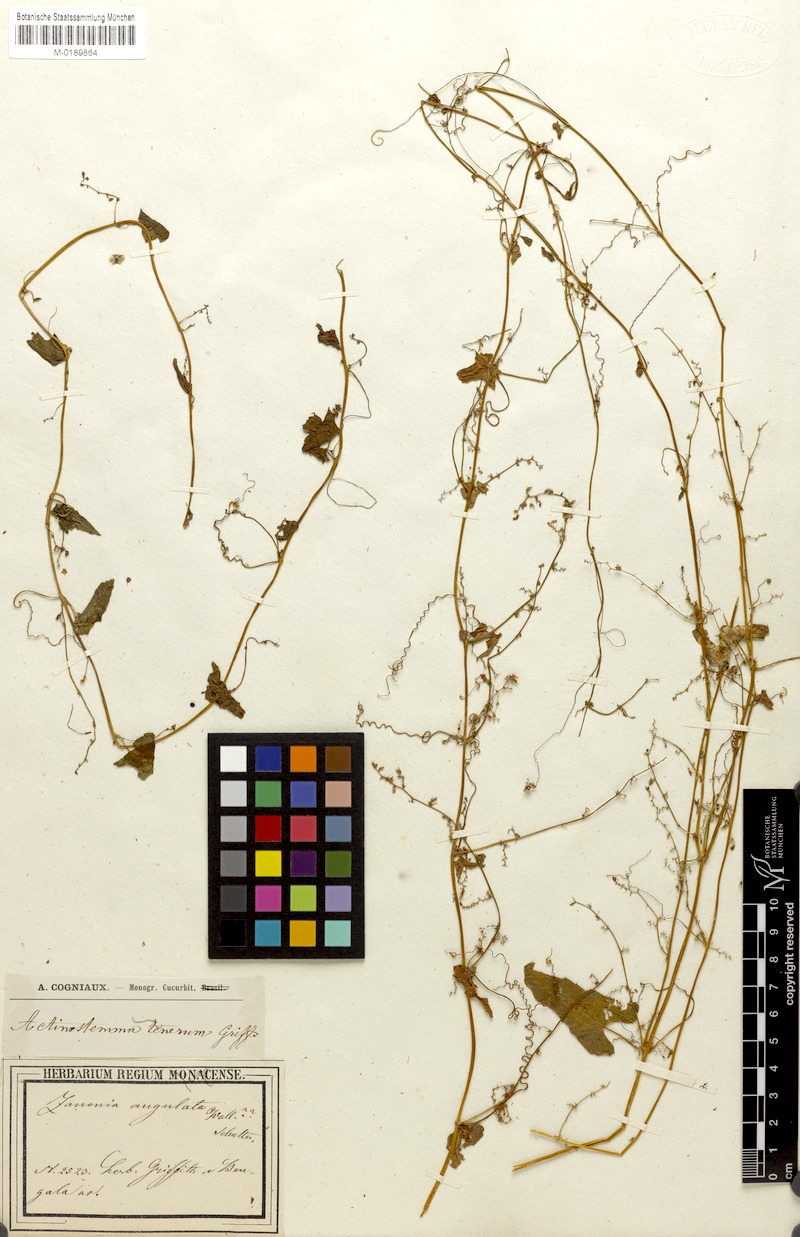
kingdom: Plantae
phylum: Tracheophyta
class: Magnoliopsida
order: Cucurbitales
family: Cucurbitaceae
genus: Actinostemma
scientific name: Actinostemma tenerum
